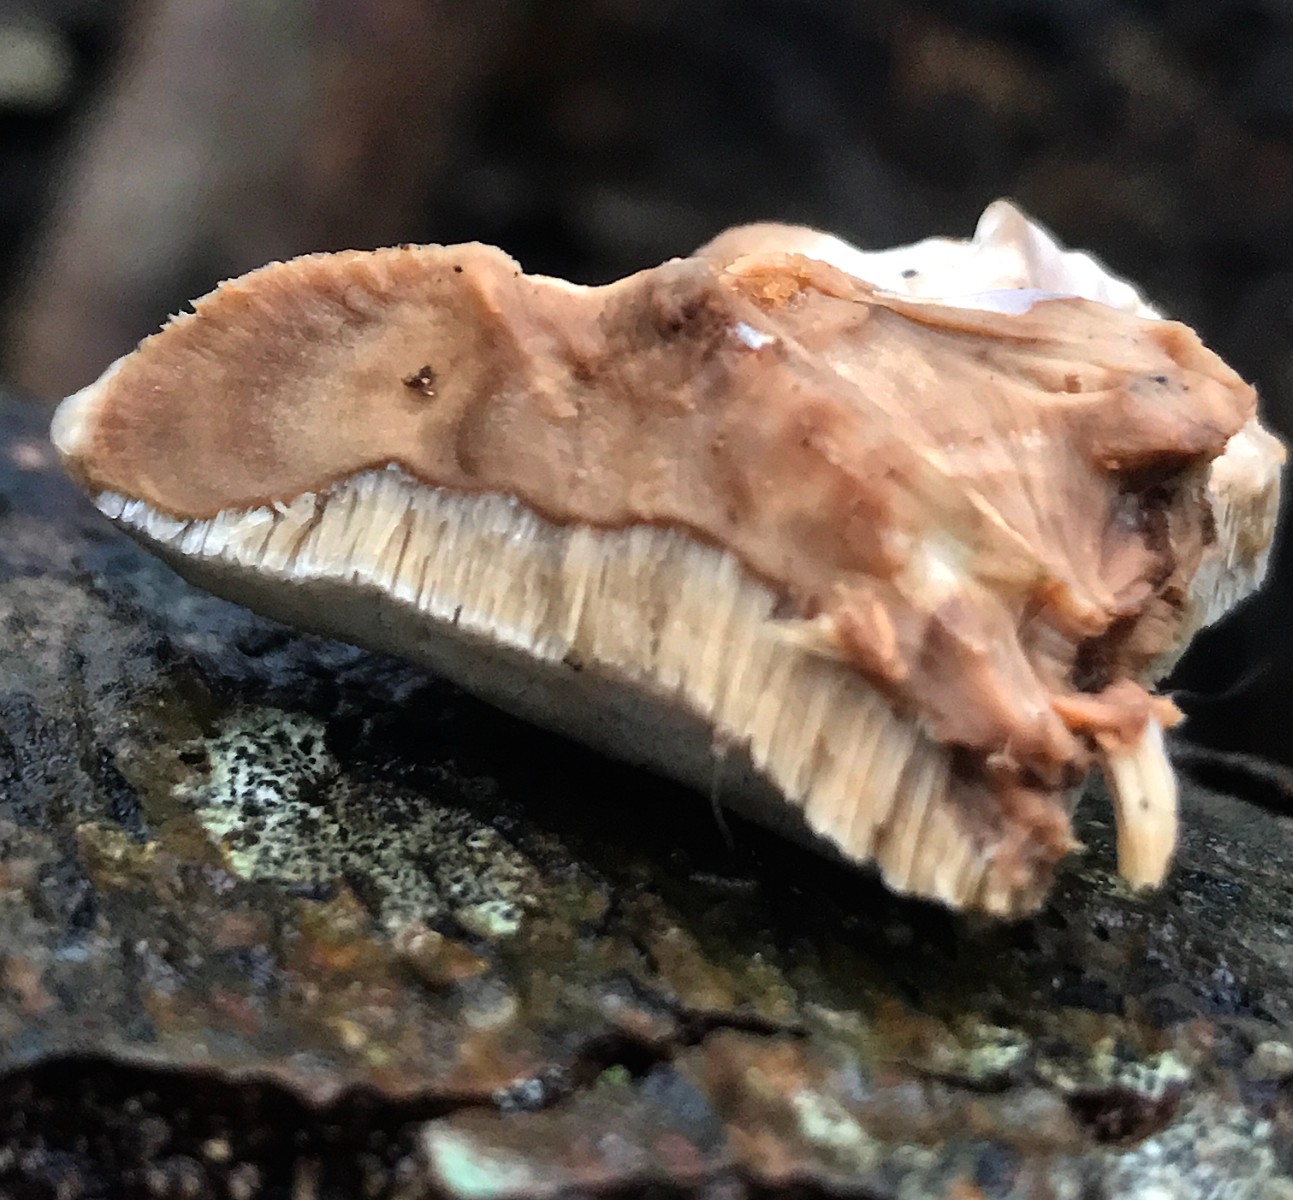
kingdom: Fungi
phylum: Basidiomycota
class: Agaricomycetes
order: Polyporales
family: Phanerochaetaceae
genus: Bjerkandera
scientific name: Bjerkandera fumosa
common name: grågul sodporesvamp
